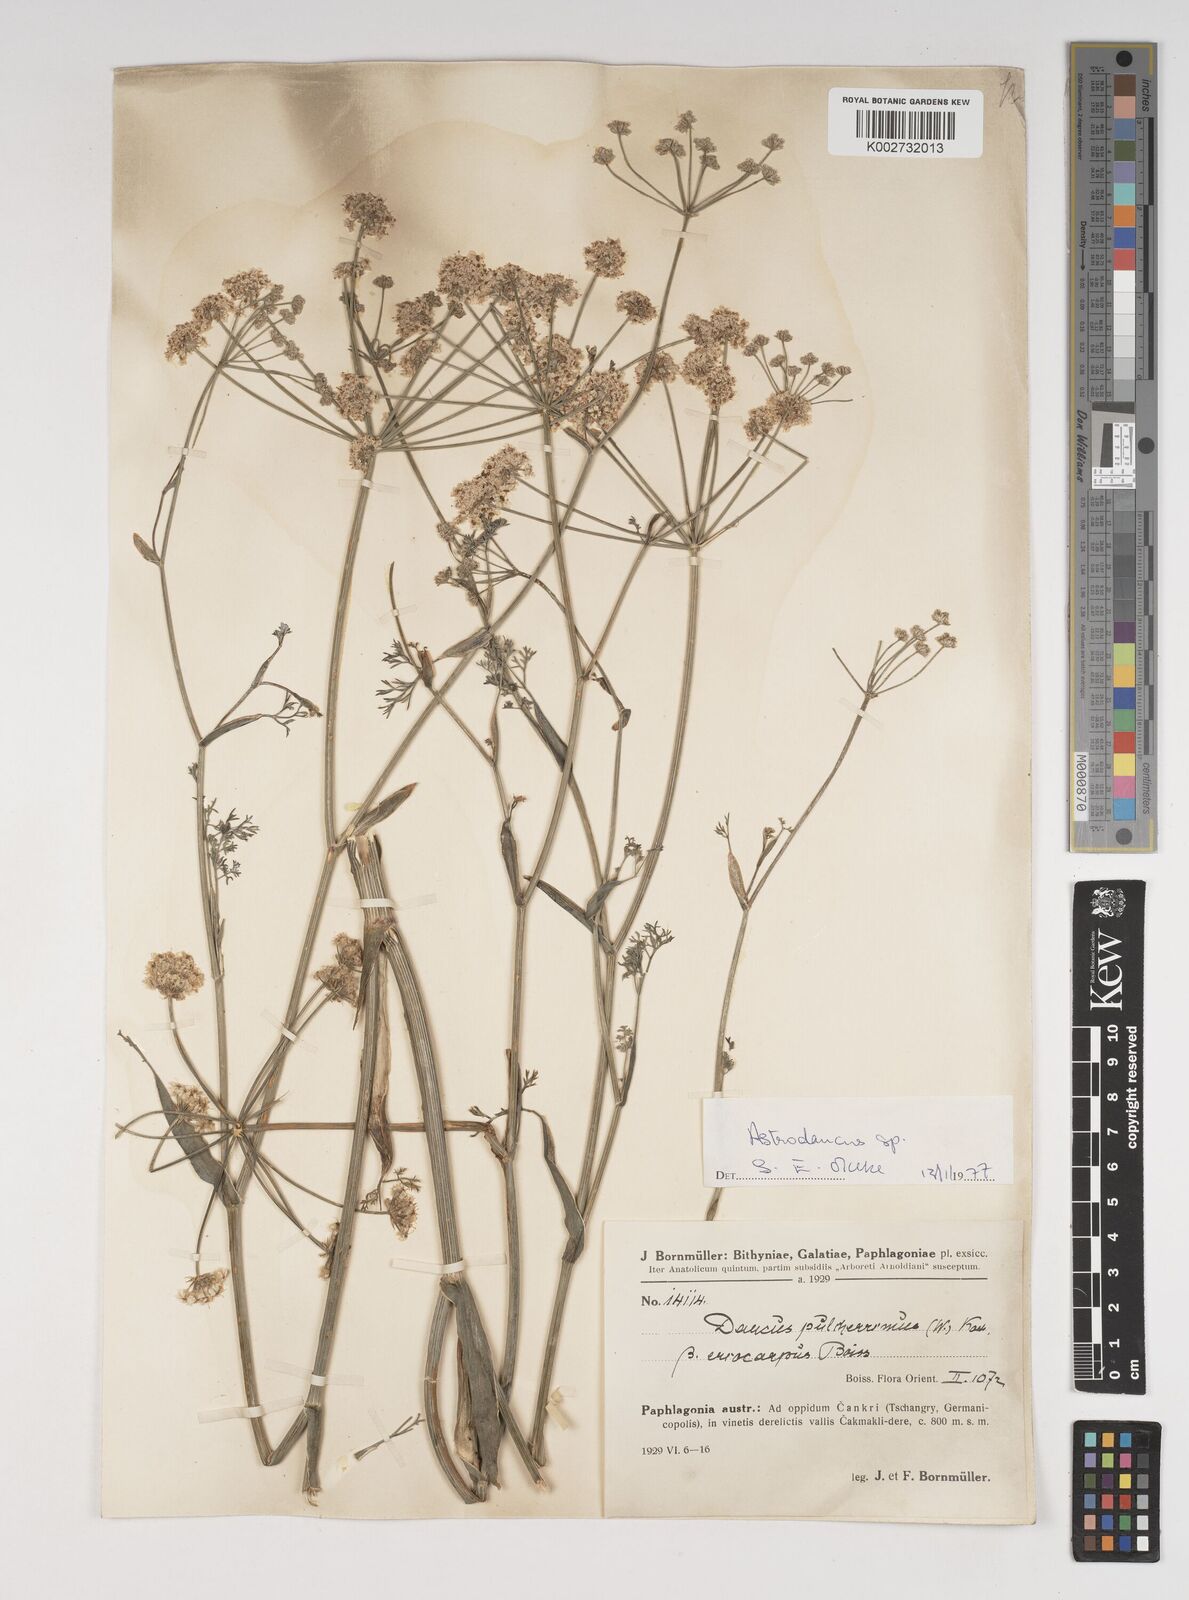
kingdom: Plantae
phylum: Tracheophyta
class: Magnoliopsida
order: Apiales
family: Apiaceae
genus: Astrodaucus
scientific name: Astrodaucus
